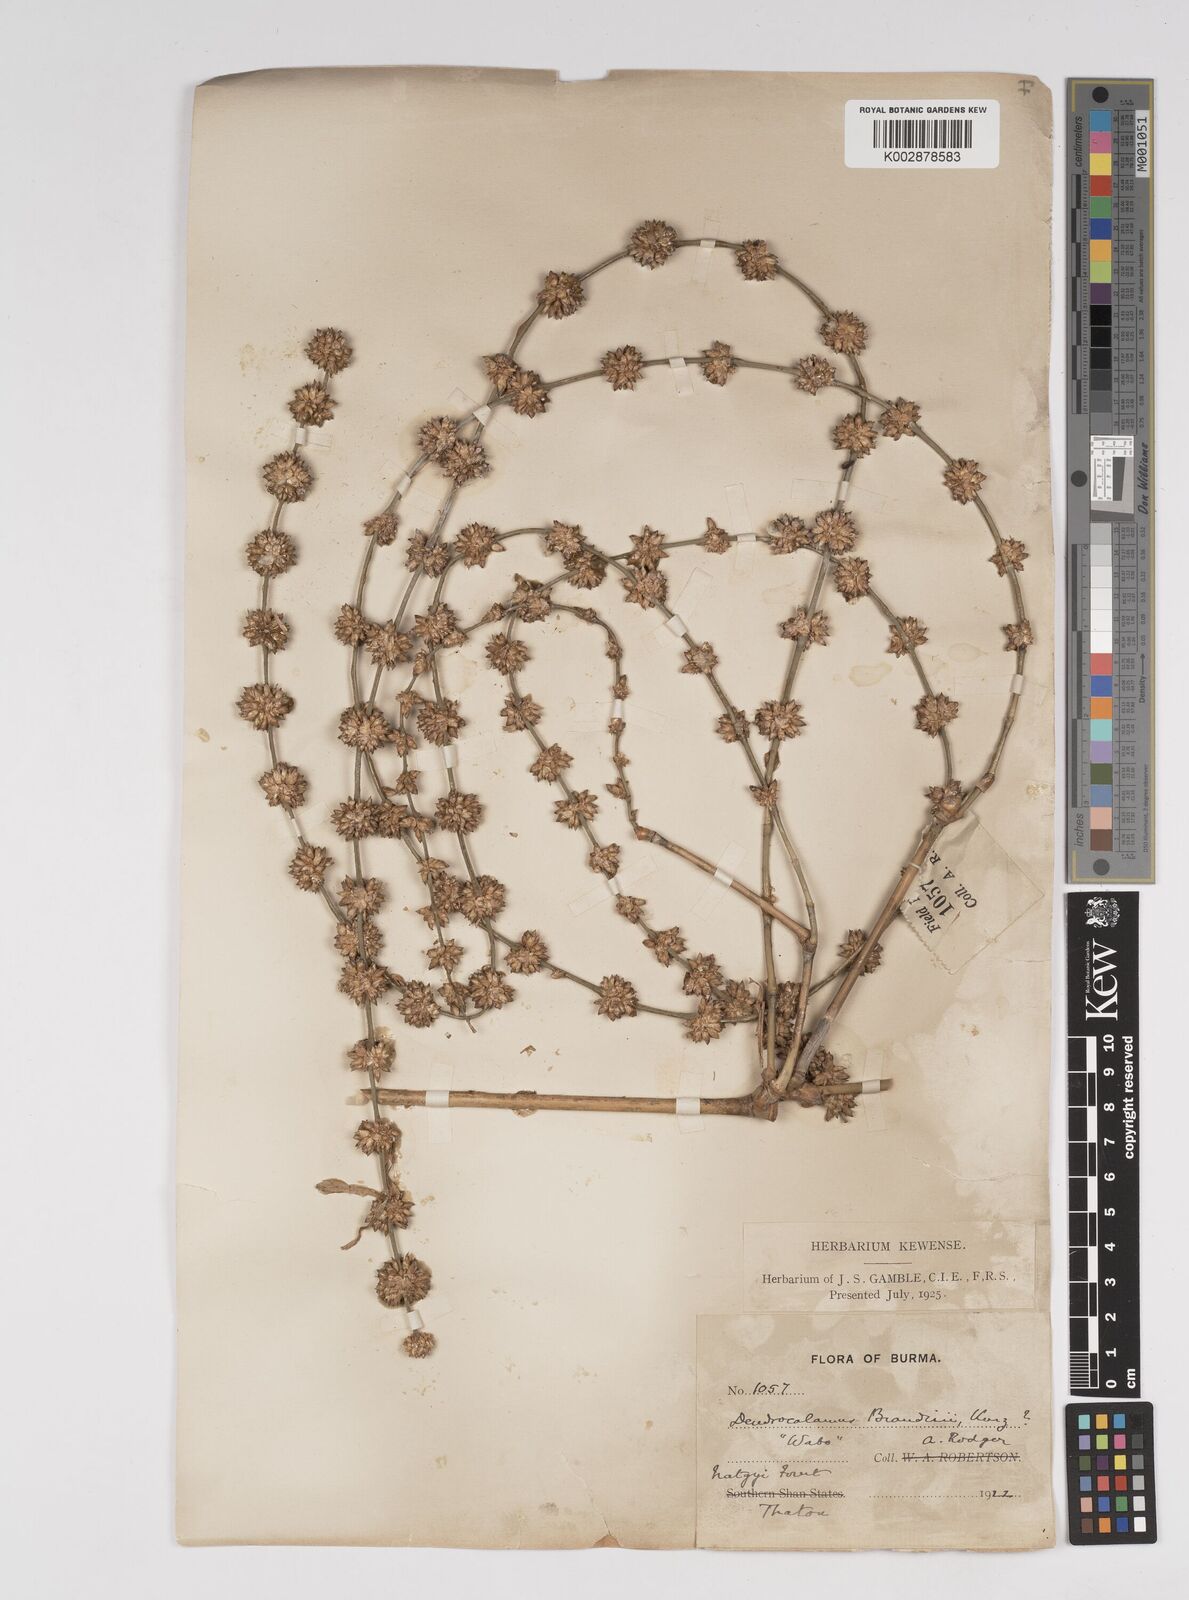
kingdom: Plantae
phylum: Tracheophyta
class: Liliopsida
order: Poales
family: Poaceae
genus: Dendrocalamus
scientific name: Dendrocalamus brandisii
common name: Velvetleaf bamboo
